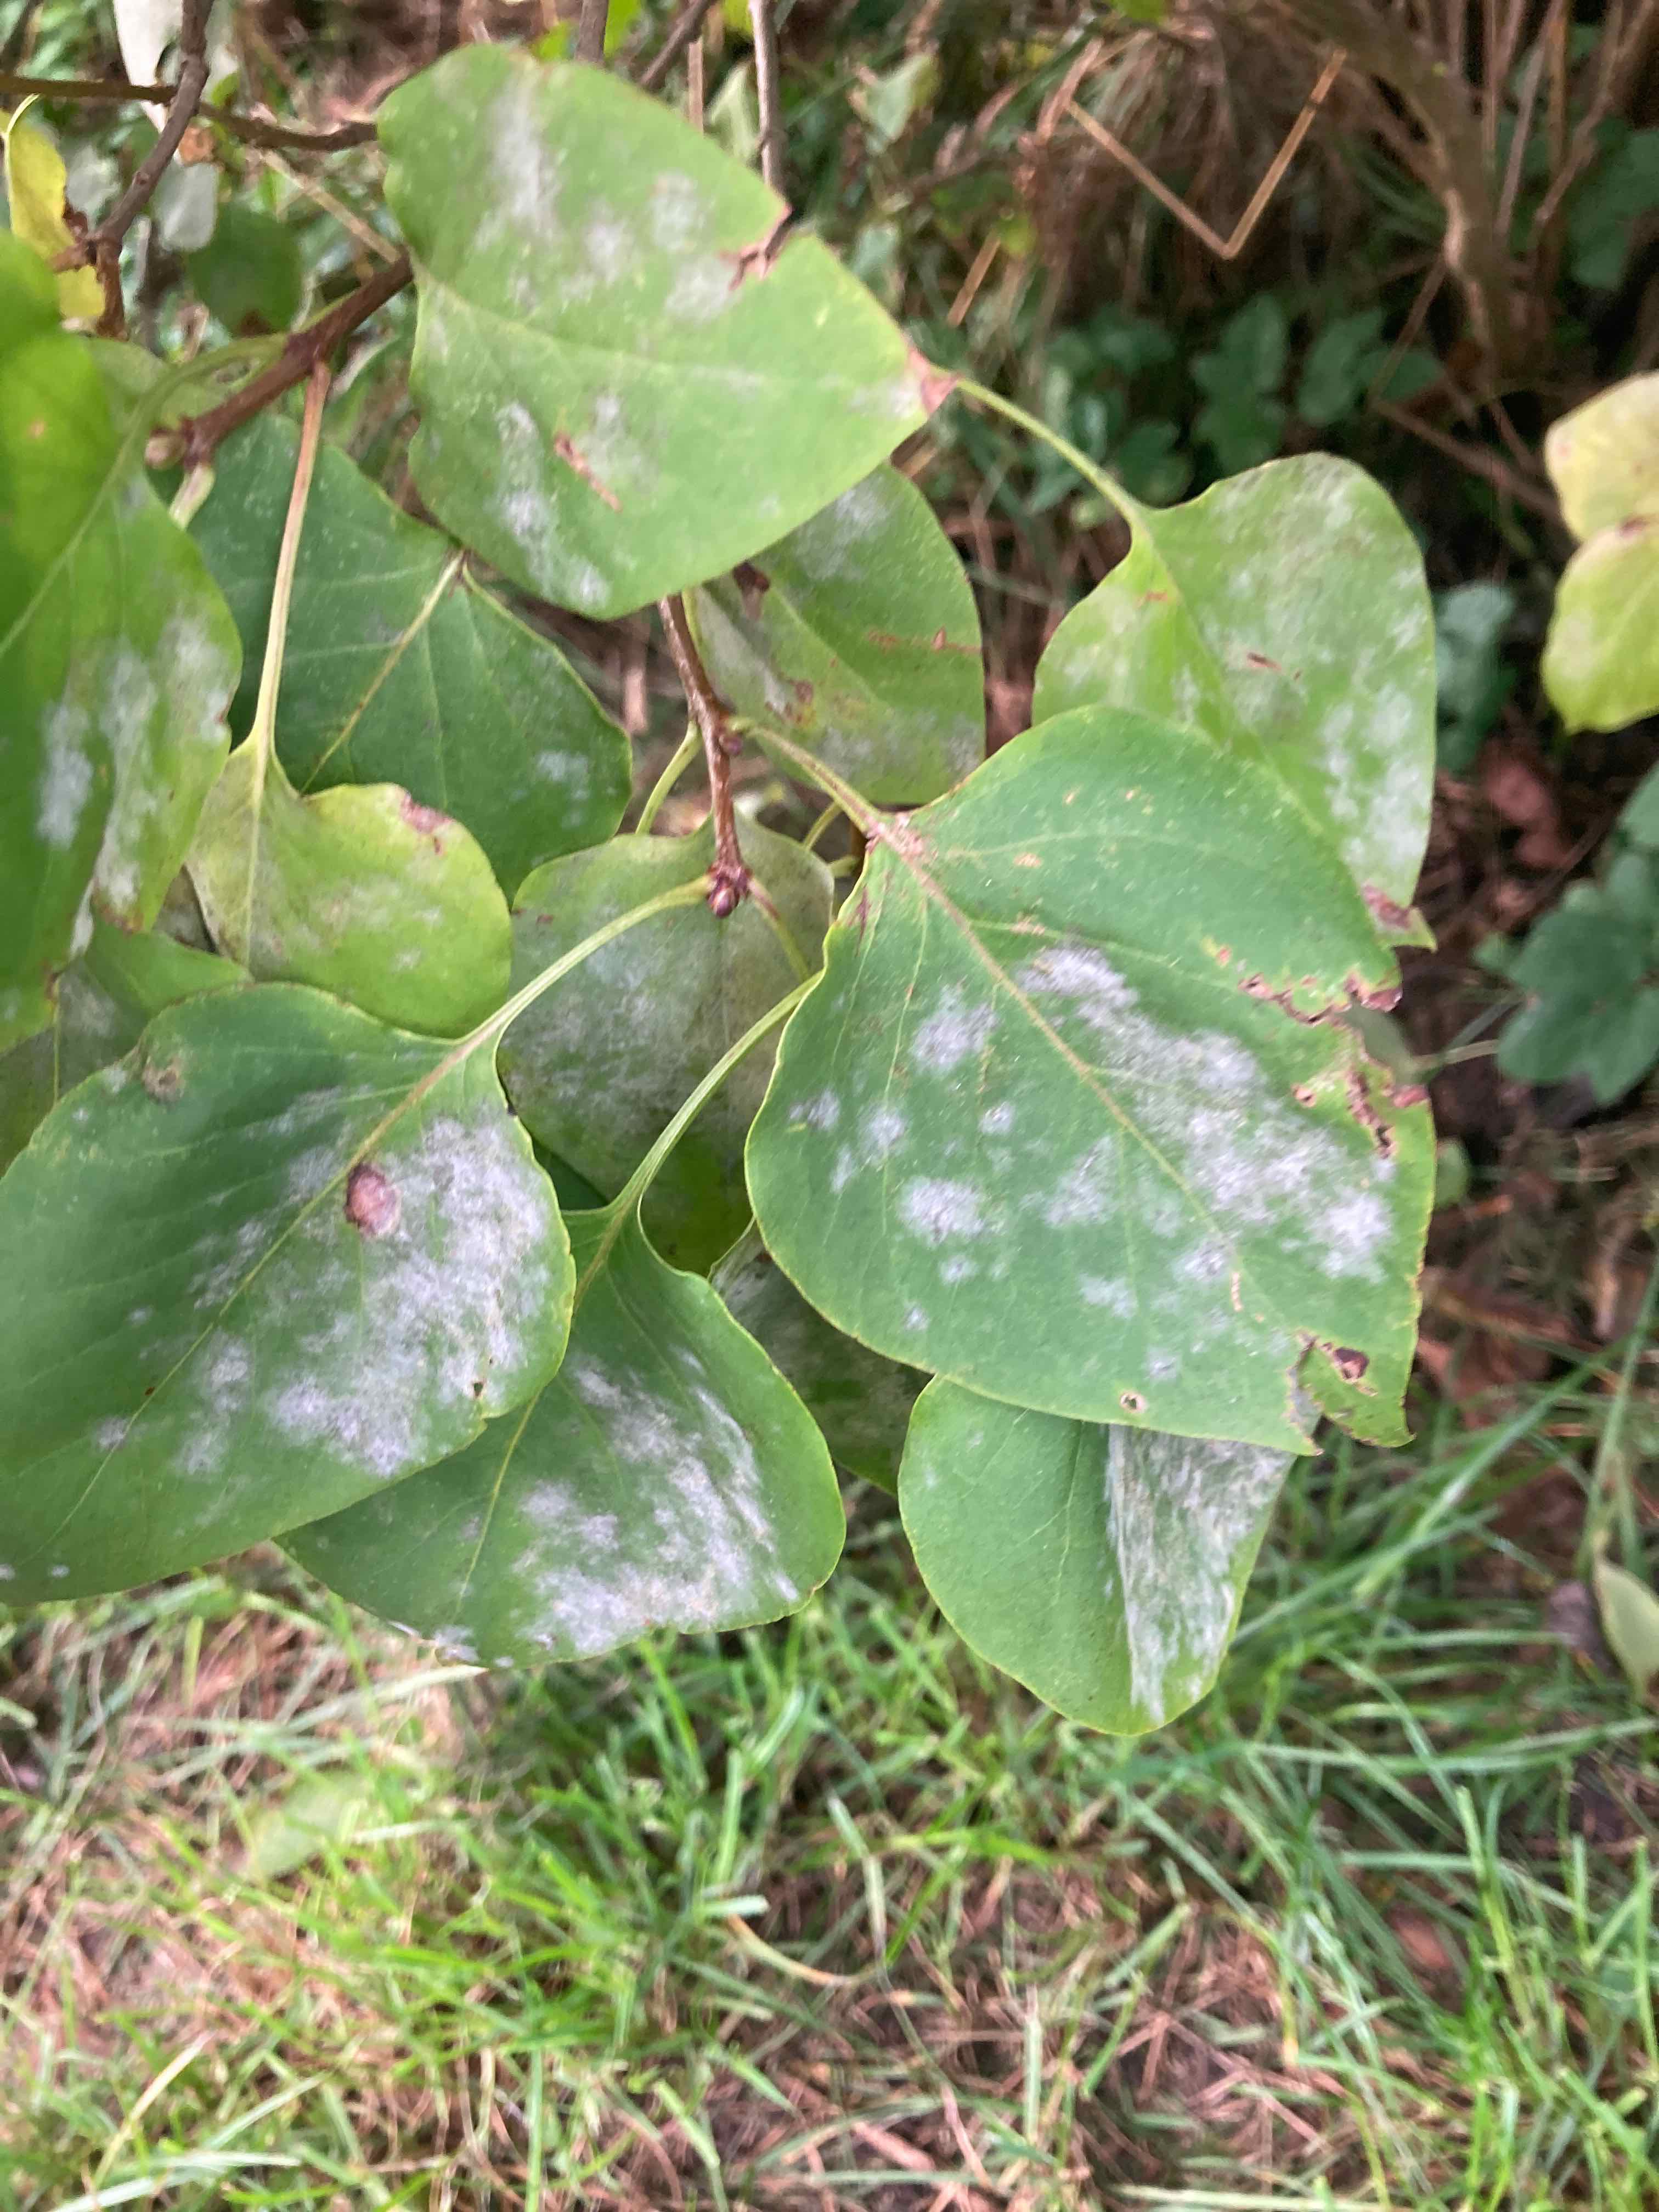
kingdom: Fungi
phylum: Ascomycota
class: Leotiomycetes
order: Helotiales
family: Erysiphaceae
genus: Erysiphe
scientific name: Erysiphe syringae-japonicae
